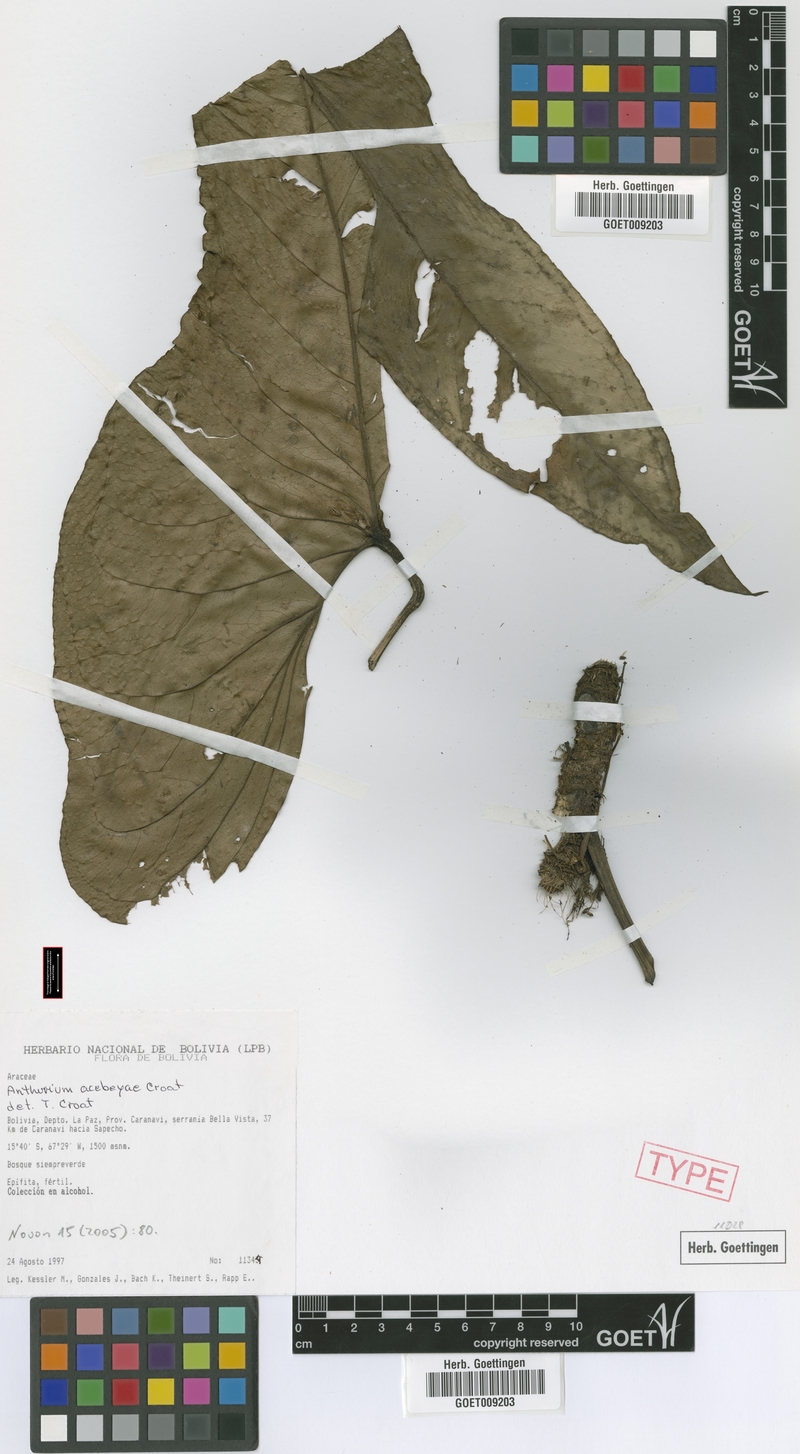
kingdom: Plantae
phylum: Tracheophyta
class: Liliopsida
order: Alismatales
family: Araceae
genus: Anthurium
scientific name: Anthurium acebeyae
